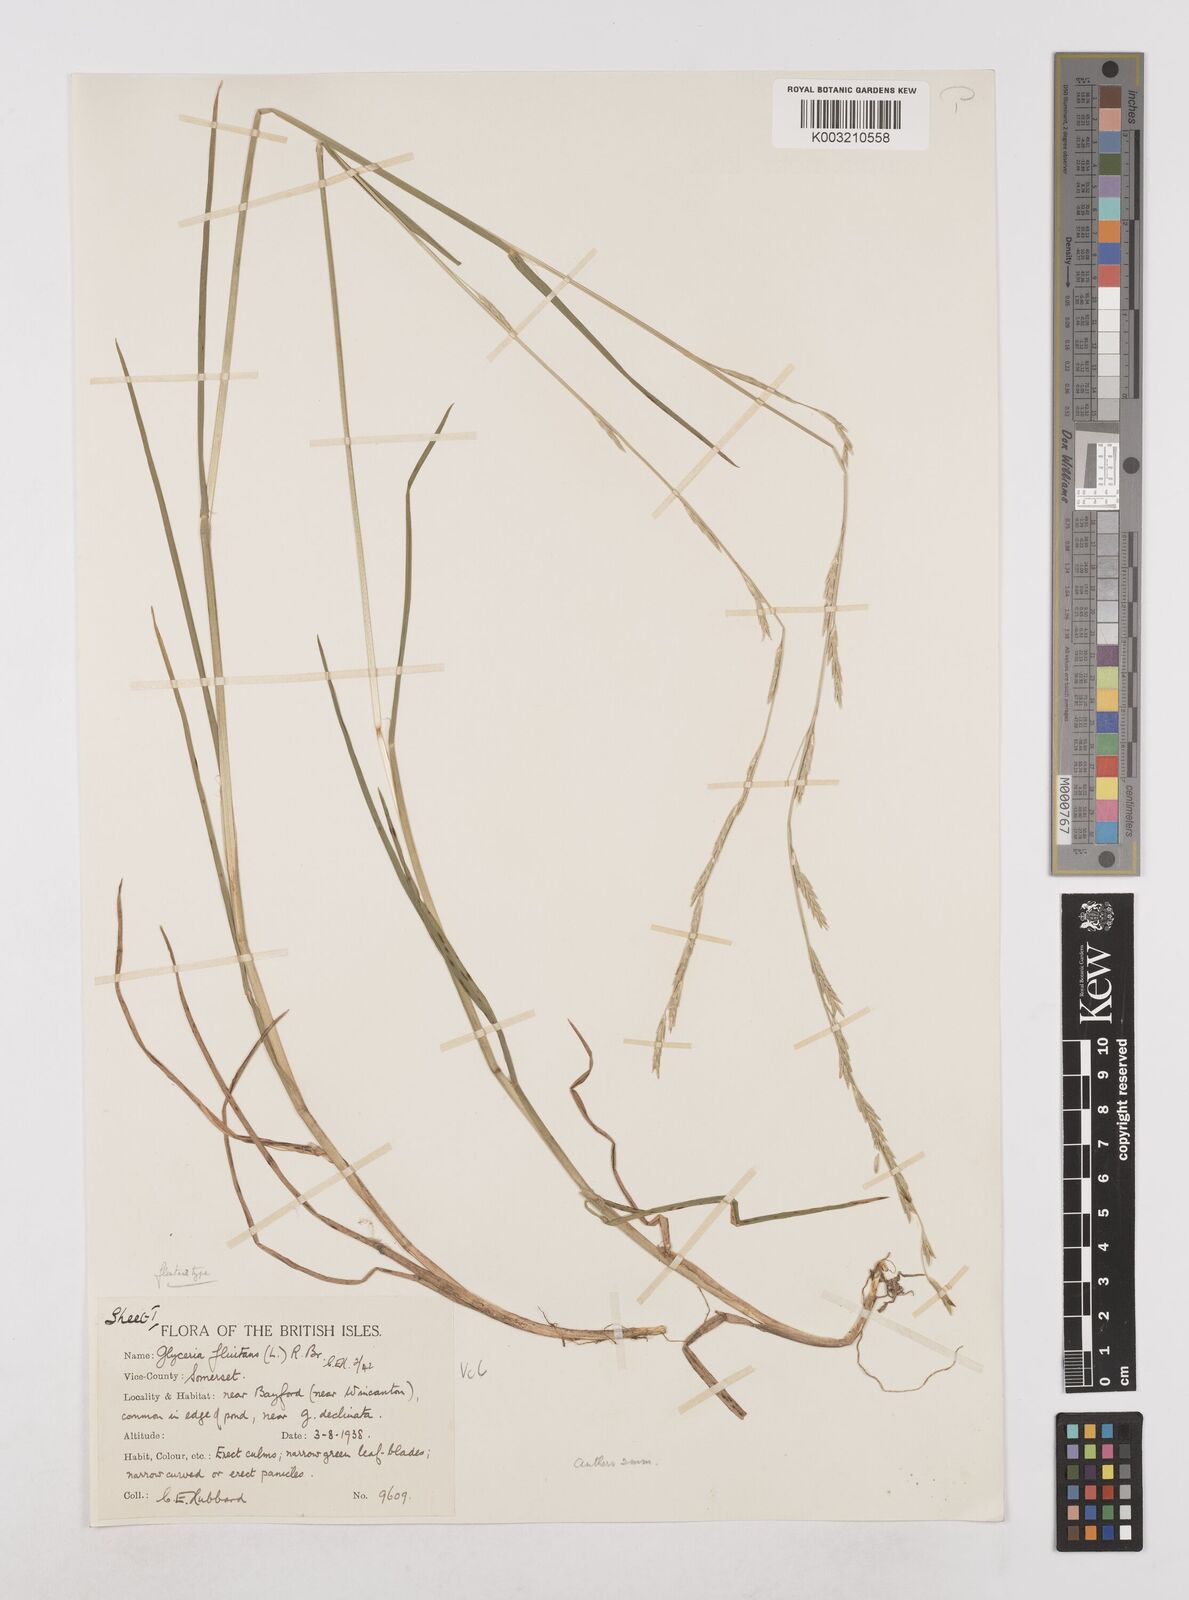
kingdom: Plantae
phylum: Tracheophyta
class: Liliopsida
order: Poales
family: Poaceae
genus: Glyceria
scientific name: Glyceria fluitans
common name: Floating sweet-grass
